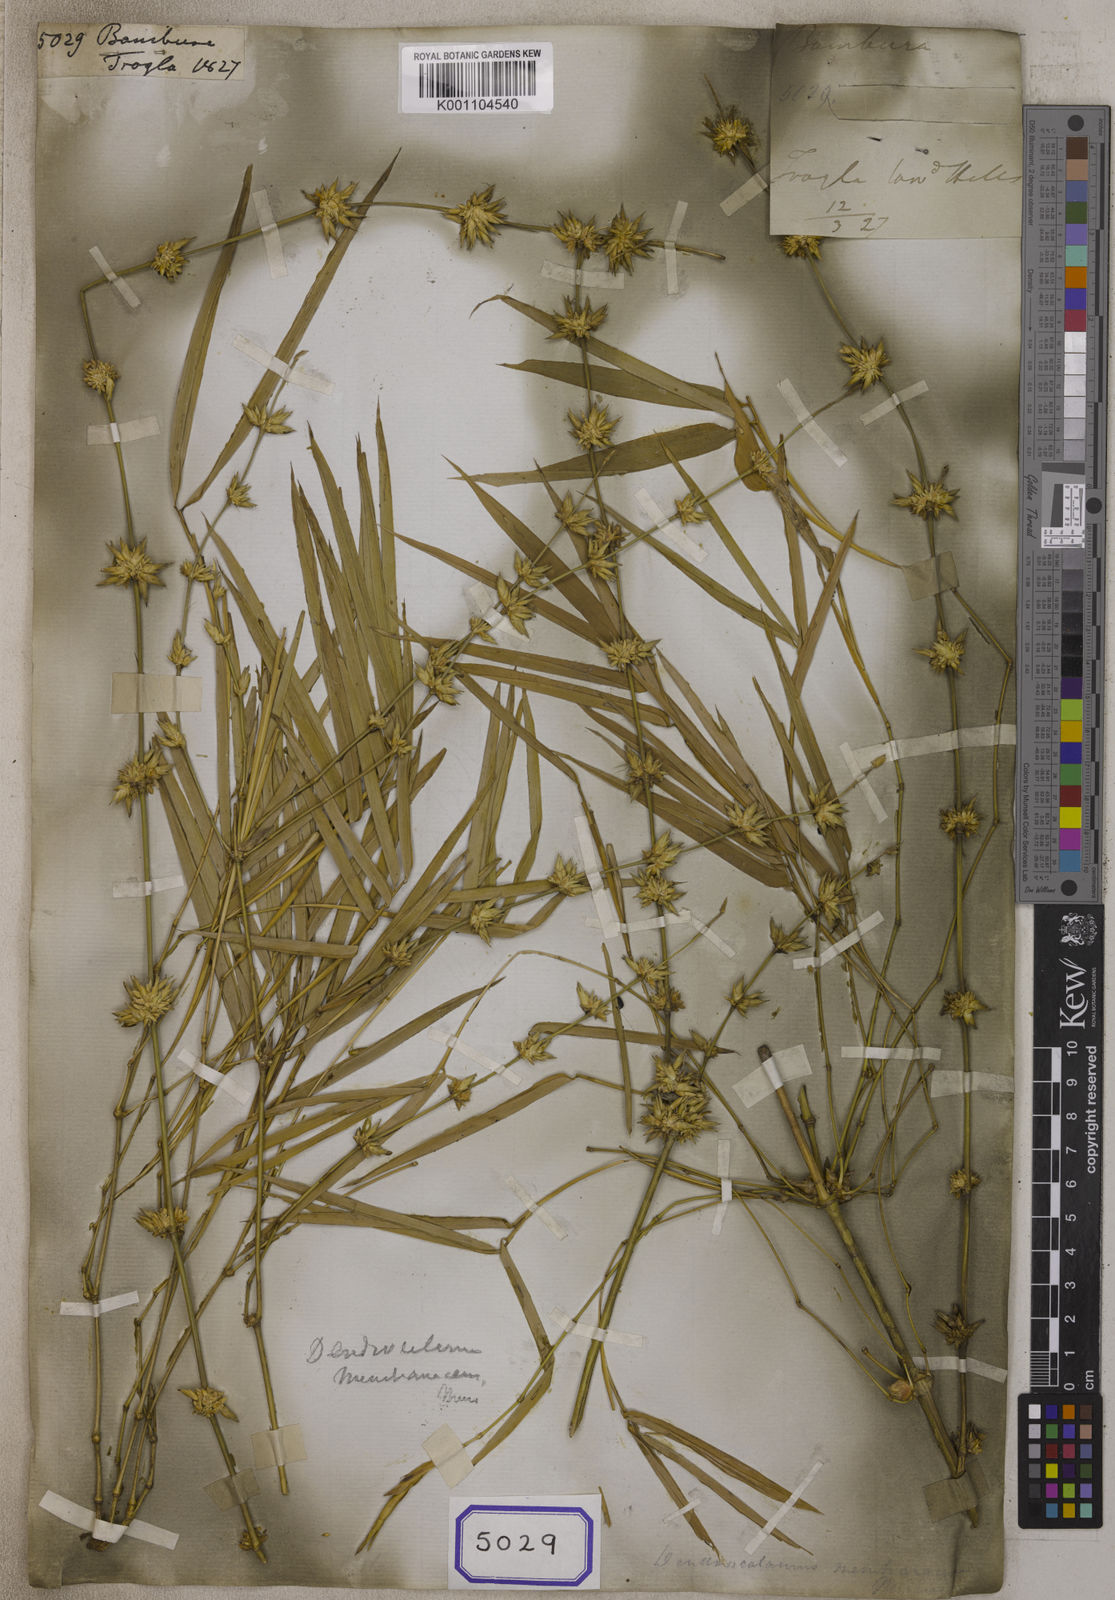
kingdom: Plantae
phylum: Tracheophyta
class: Liliopsida
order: Poales
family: Poaceae
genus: Bambusa
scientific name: Bambusa
